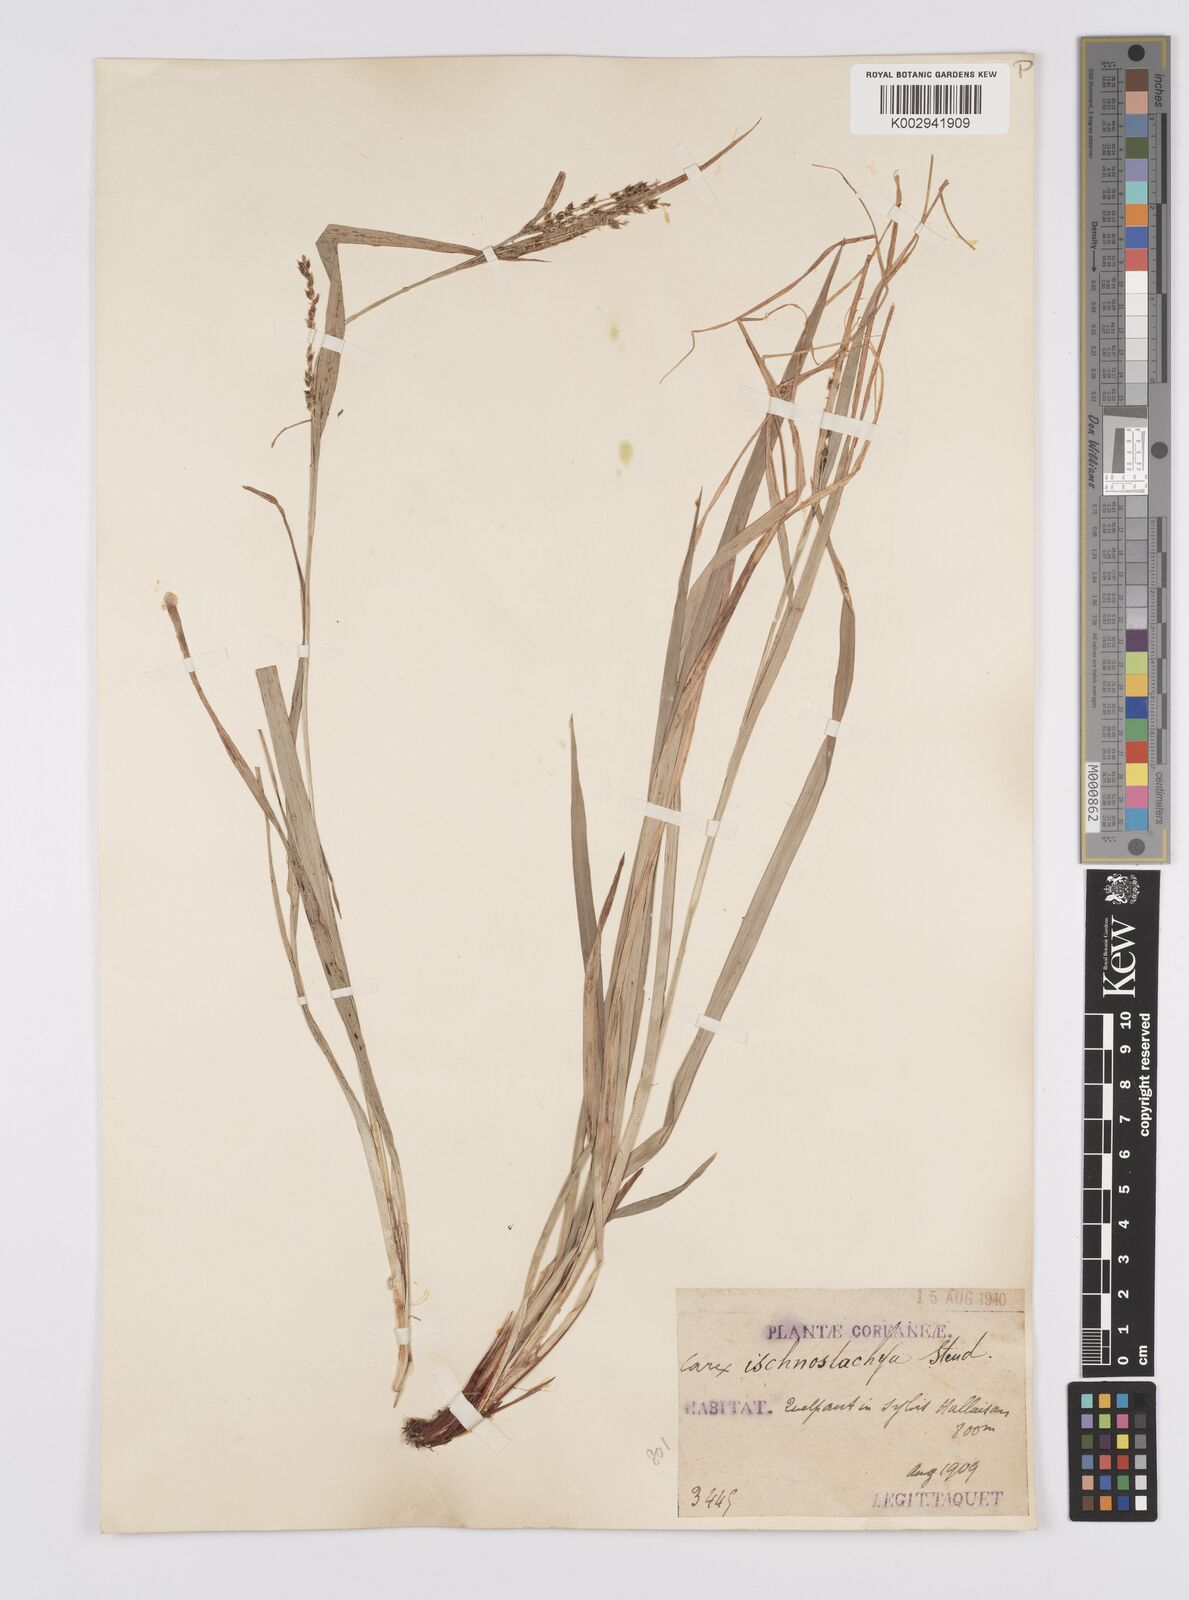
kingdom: Plantae
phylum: Tracheophyta
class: Liliopsida
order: Poales
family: Cyperaceae
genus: Carex
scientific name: Carex ischnostachya
